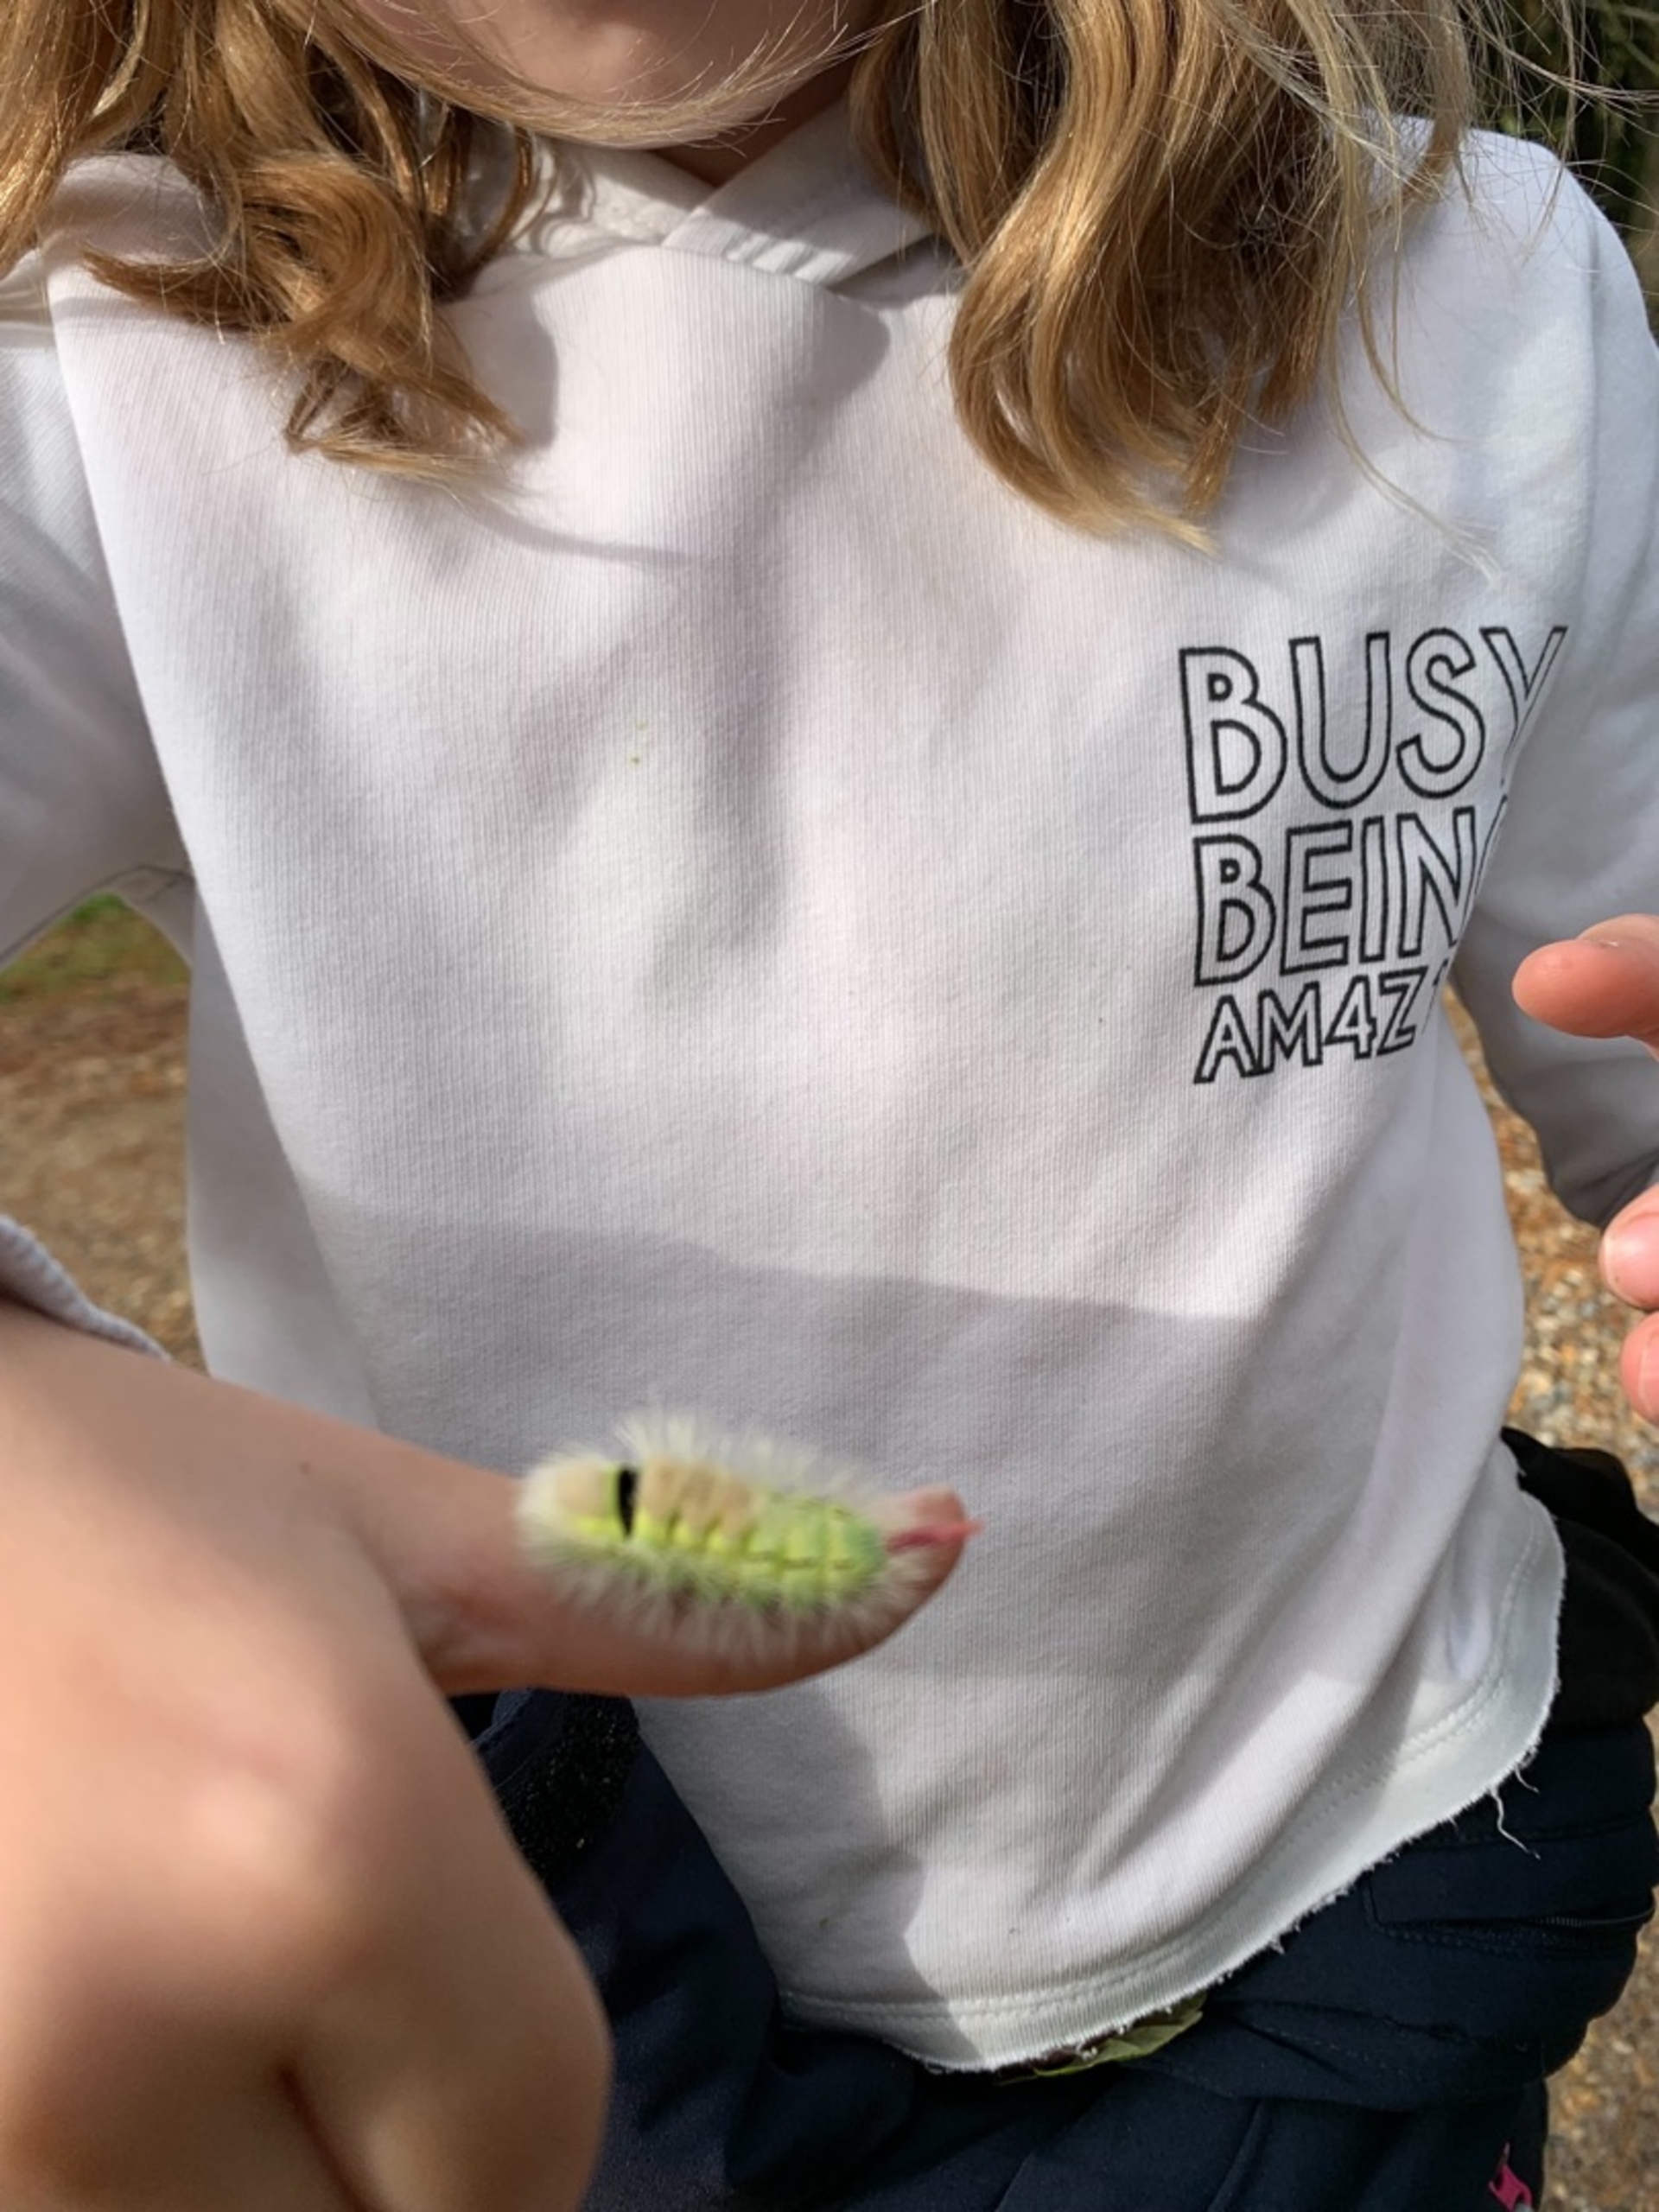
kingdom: Animalia
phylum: Arthropoda
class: Insecta
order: Lepidoptera
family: Erebidae
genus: Calliteara
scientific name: Calliteara pudibunda
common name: Bøgenonne
